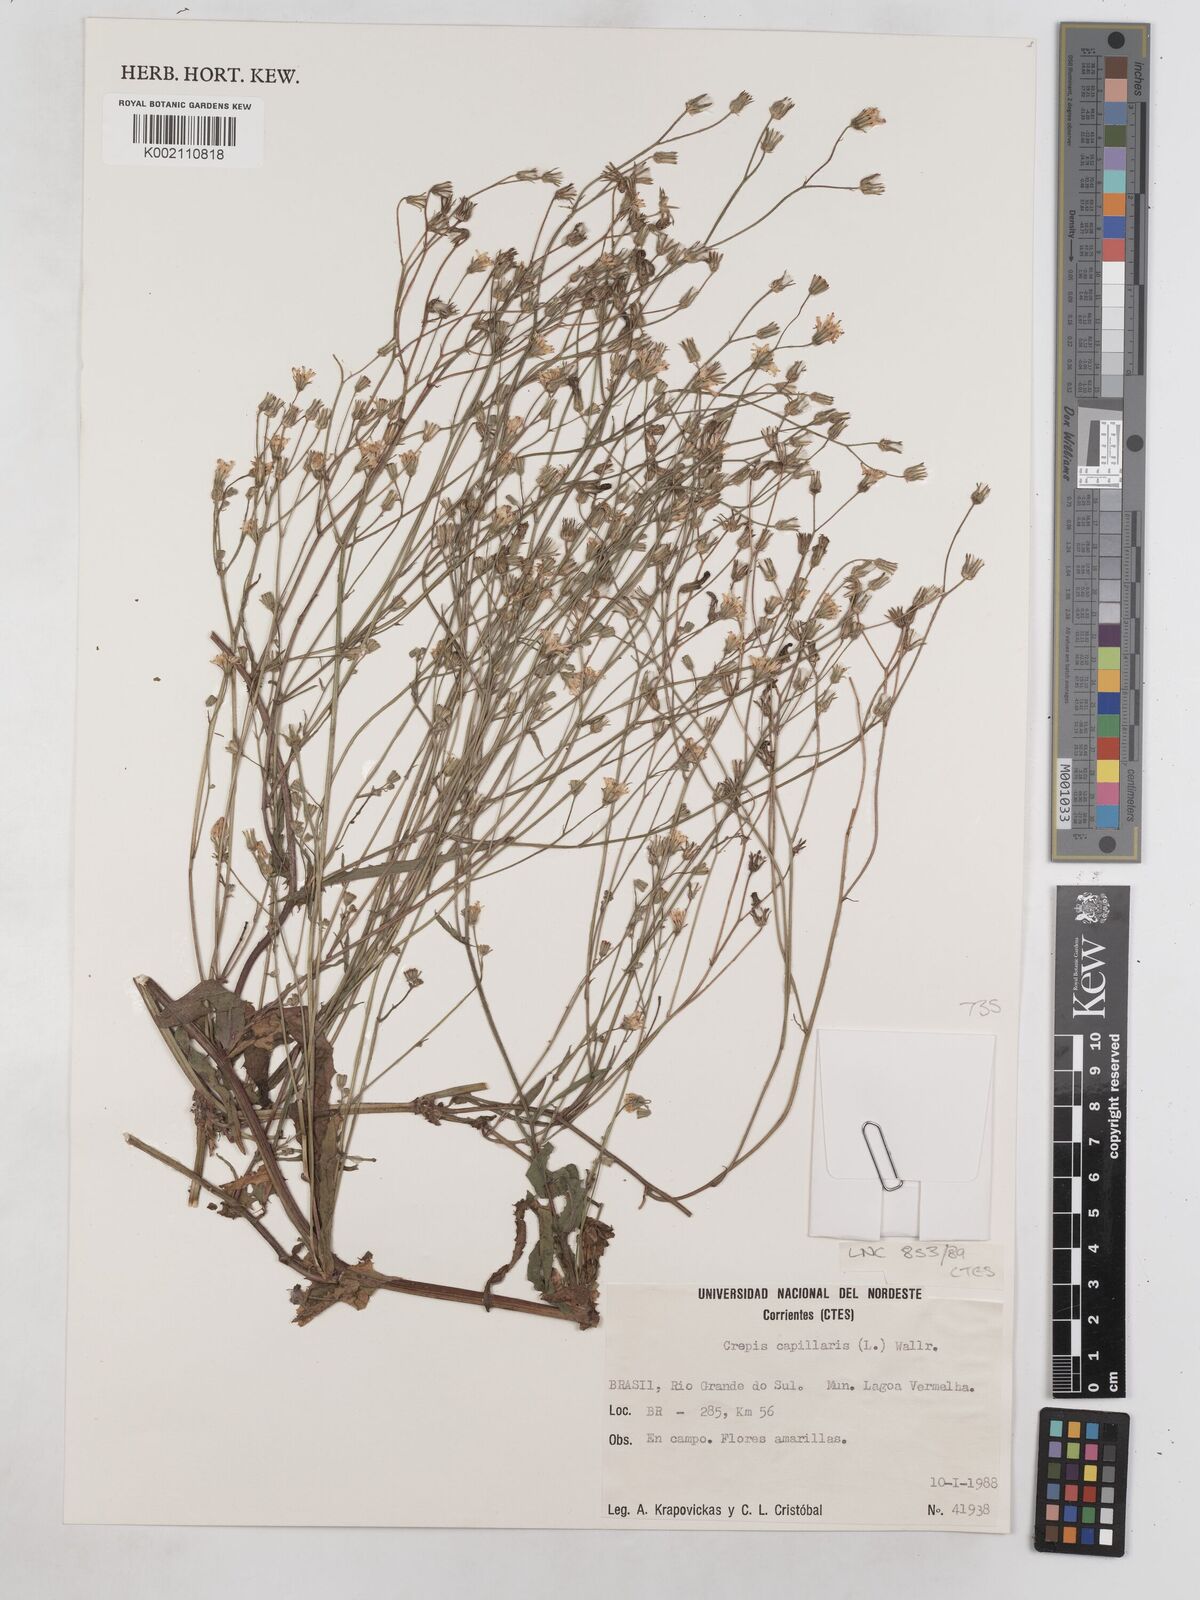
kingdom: Plantae
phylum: Tracheophyta
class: Magnoliopsida
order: Asterales
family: Asteraceae
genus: Crepis
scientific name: Crepis capillaris
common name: Smooth hawksbeard
